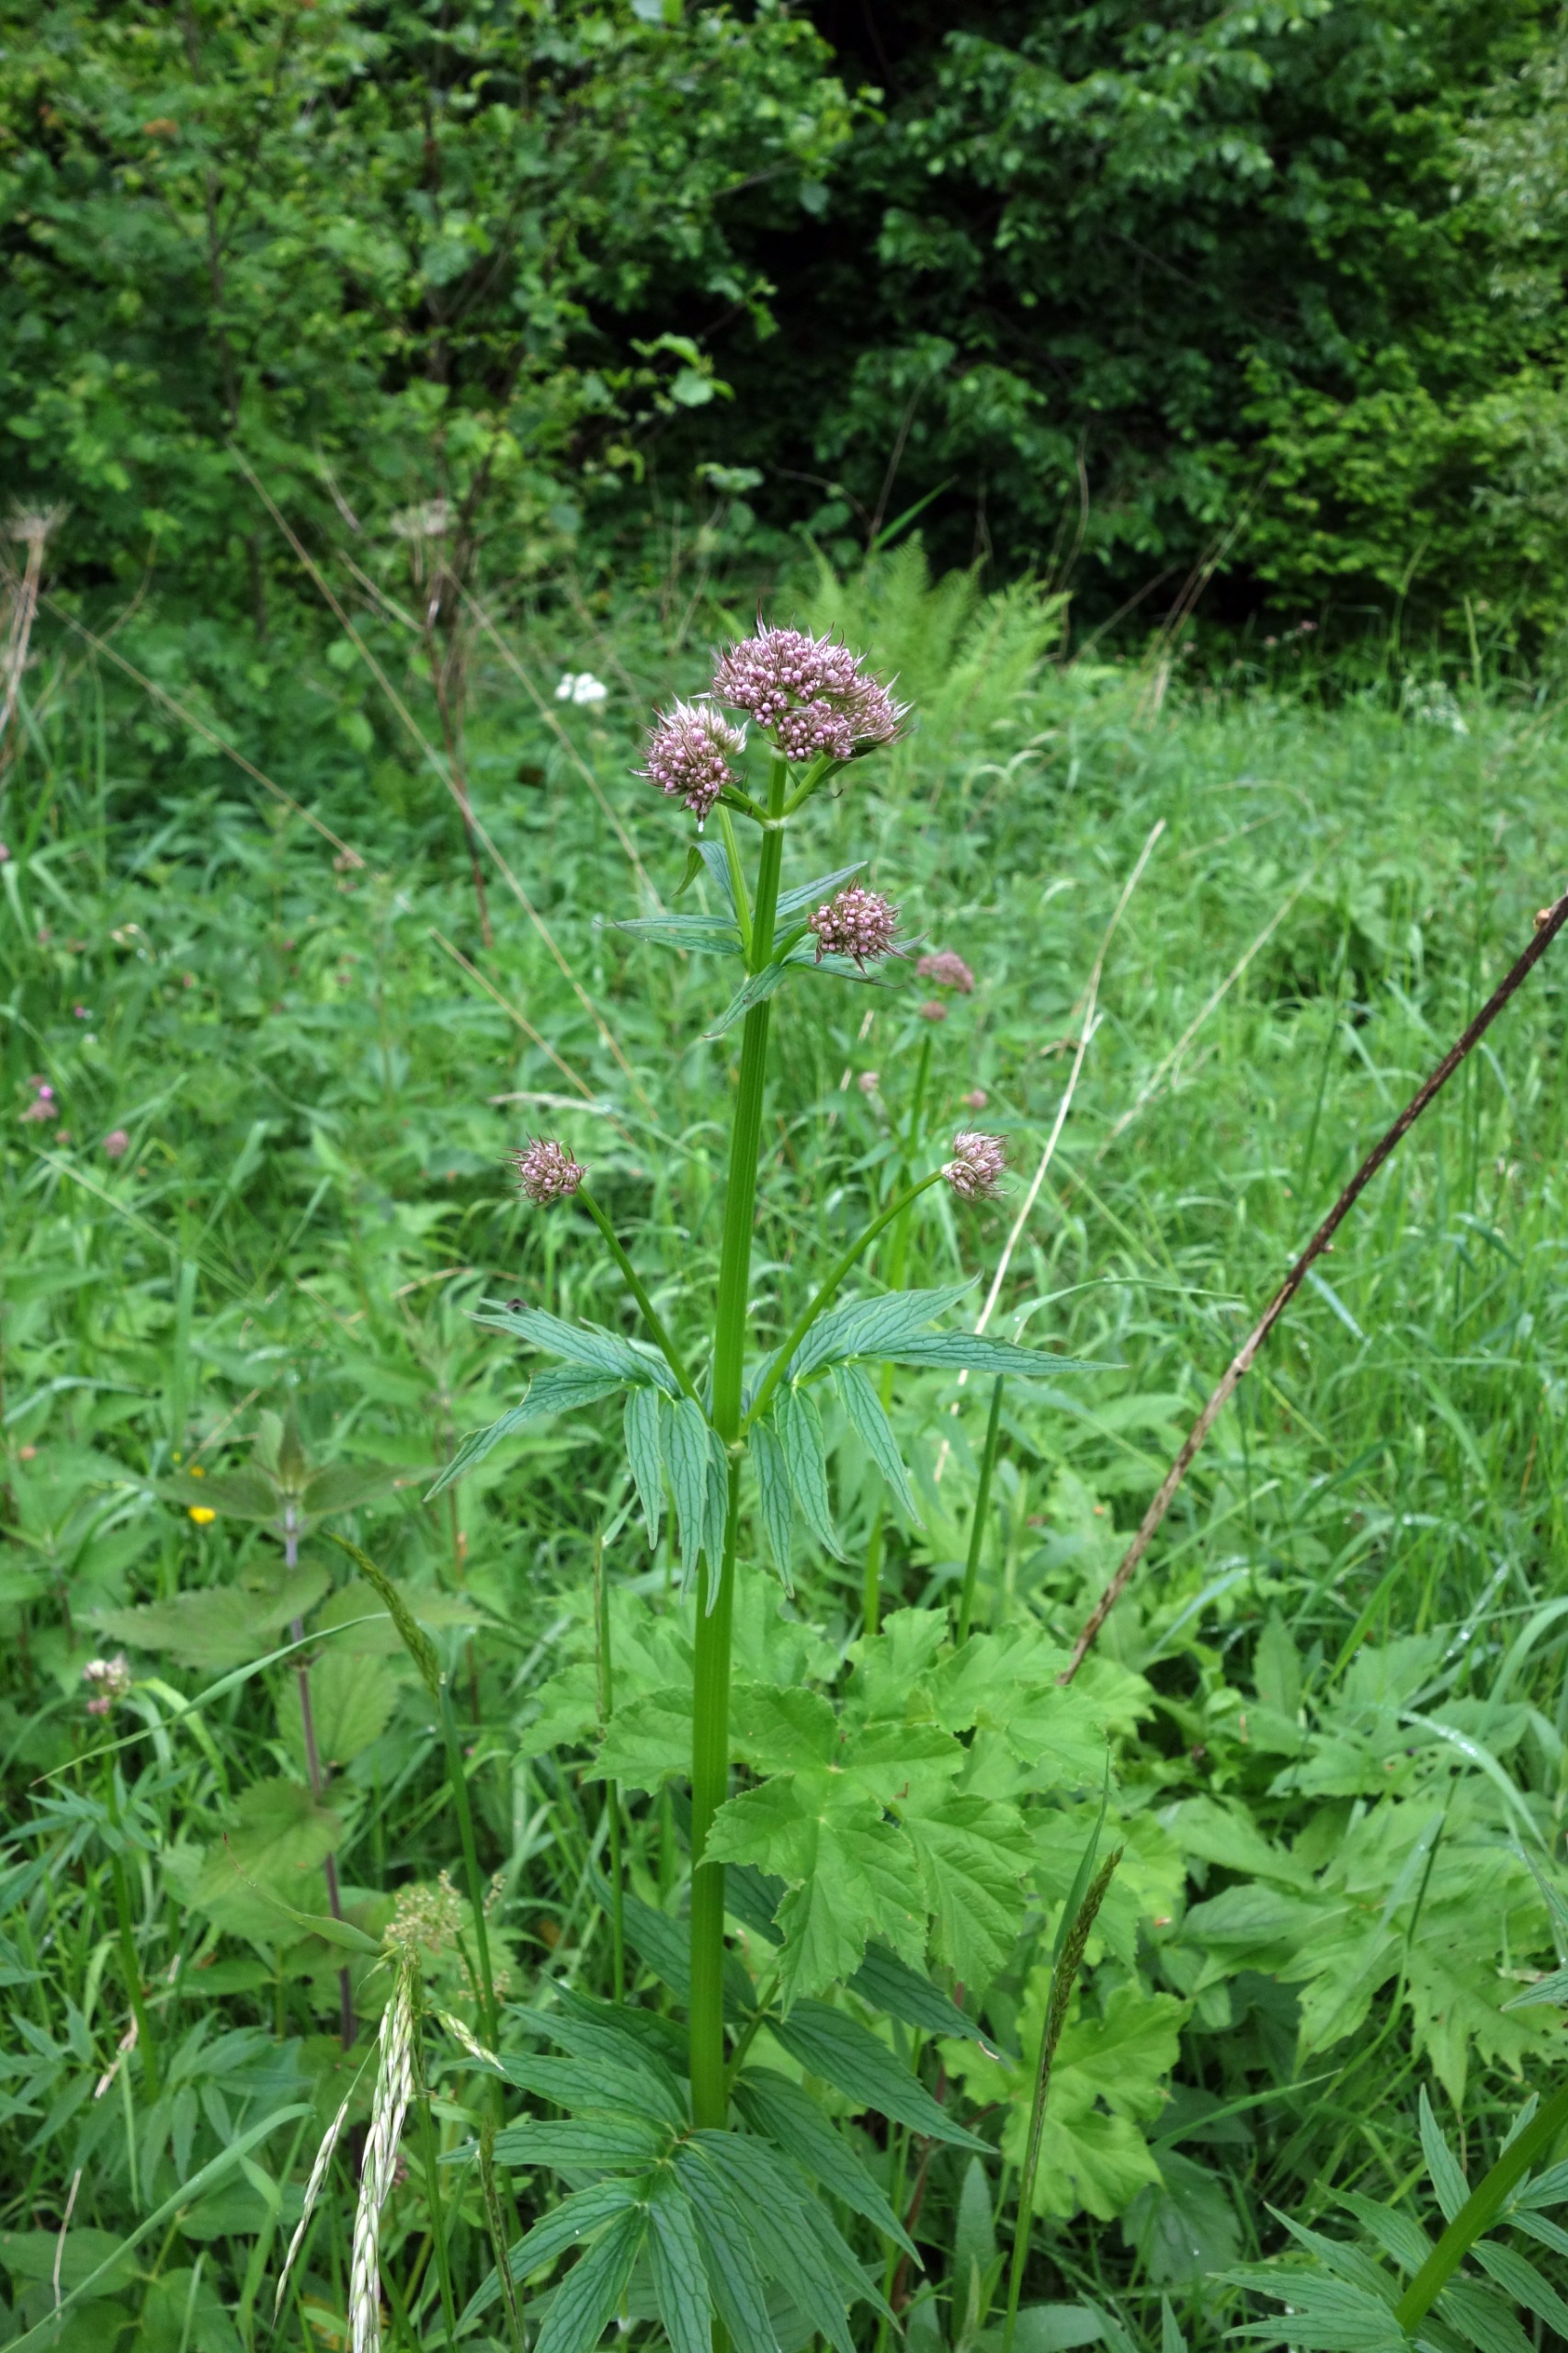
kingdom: Plantae
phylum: Tracheophyta
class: Magnoliopsida
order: Dipsacales
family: Caprifoliaceae
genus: Valeriana
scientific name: Valeriana sambucifolia
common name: Hyldebladet baldrian
